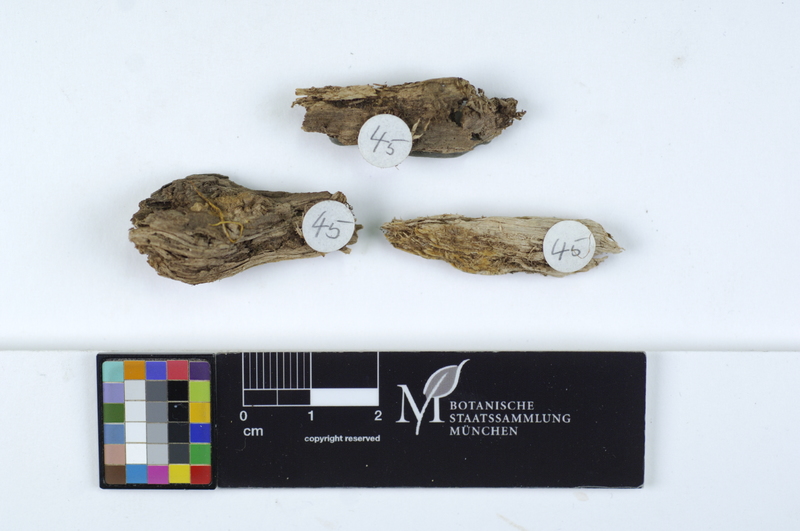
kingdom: Fungi
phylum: Basidiomycota
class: Agaricomycetes
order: Thelephorales
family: Thelephoraceae
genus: Tomentella
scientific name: Tomentella
